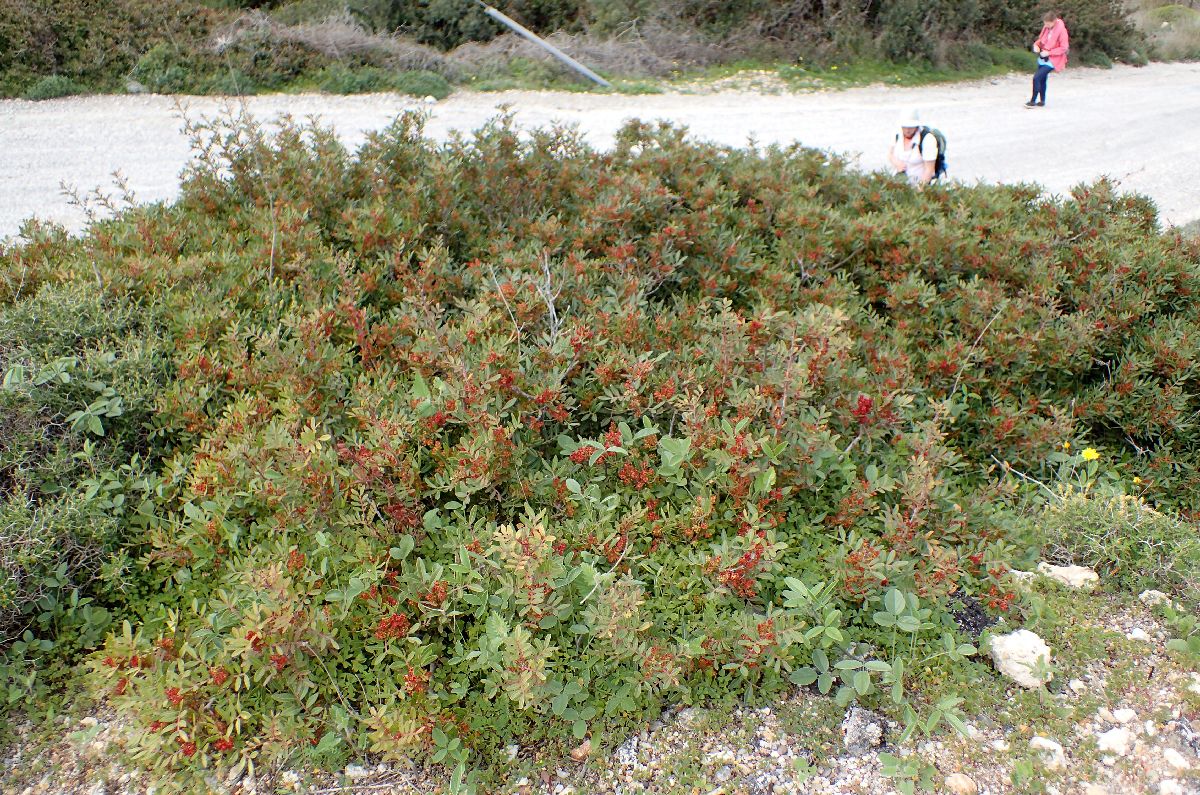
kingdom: Plantae
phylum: Tracheophyta
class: Magnoliopsida
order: Sapindales
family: Anacardiaceae
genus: Pistacia
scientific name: Pistacia lentiscus
